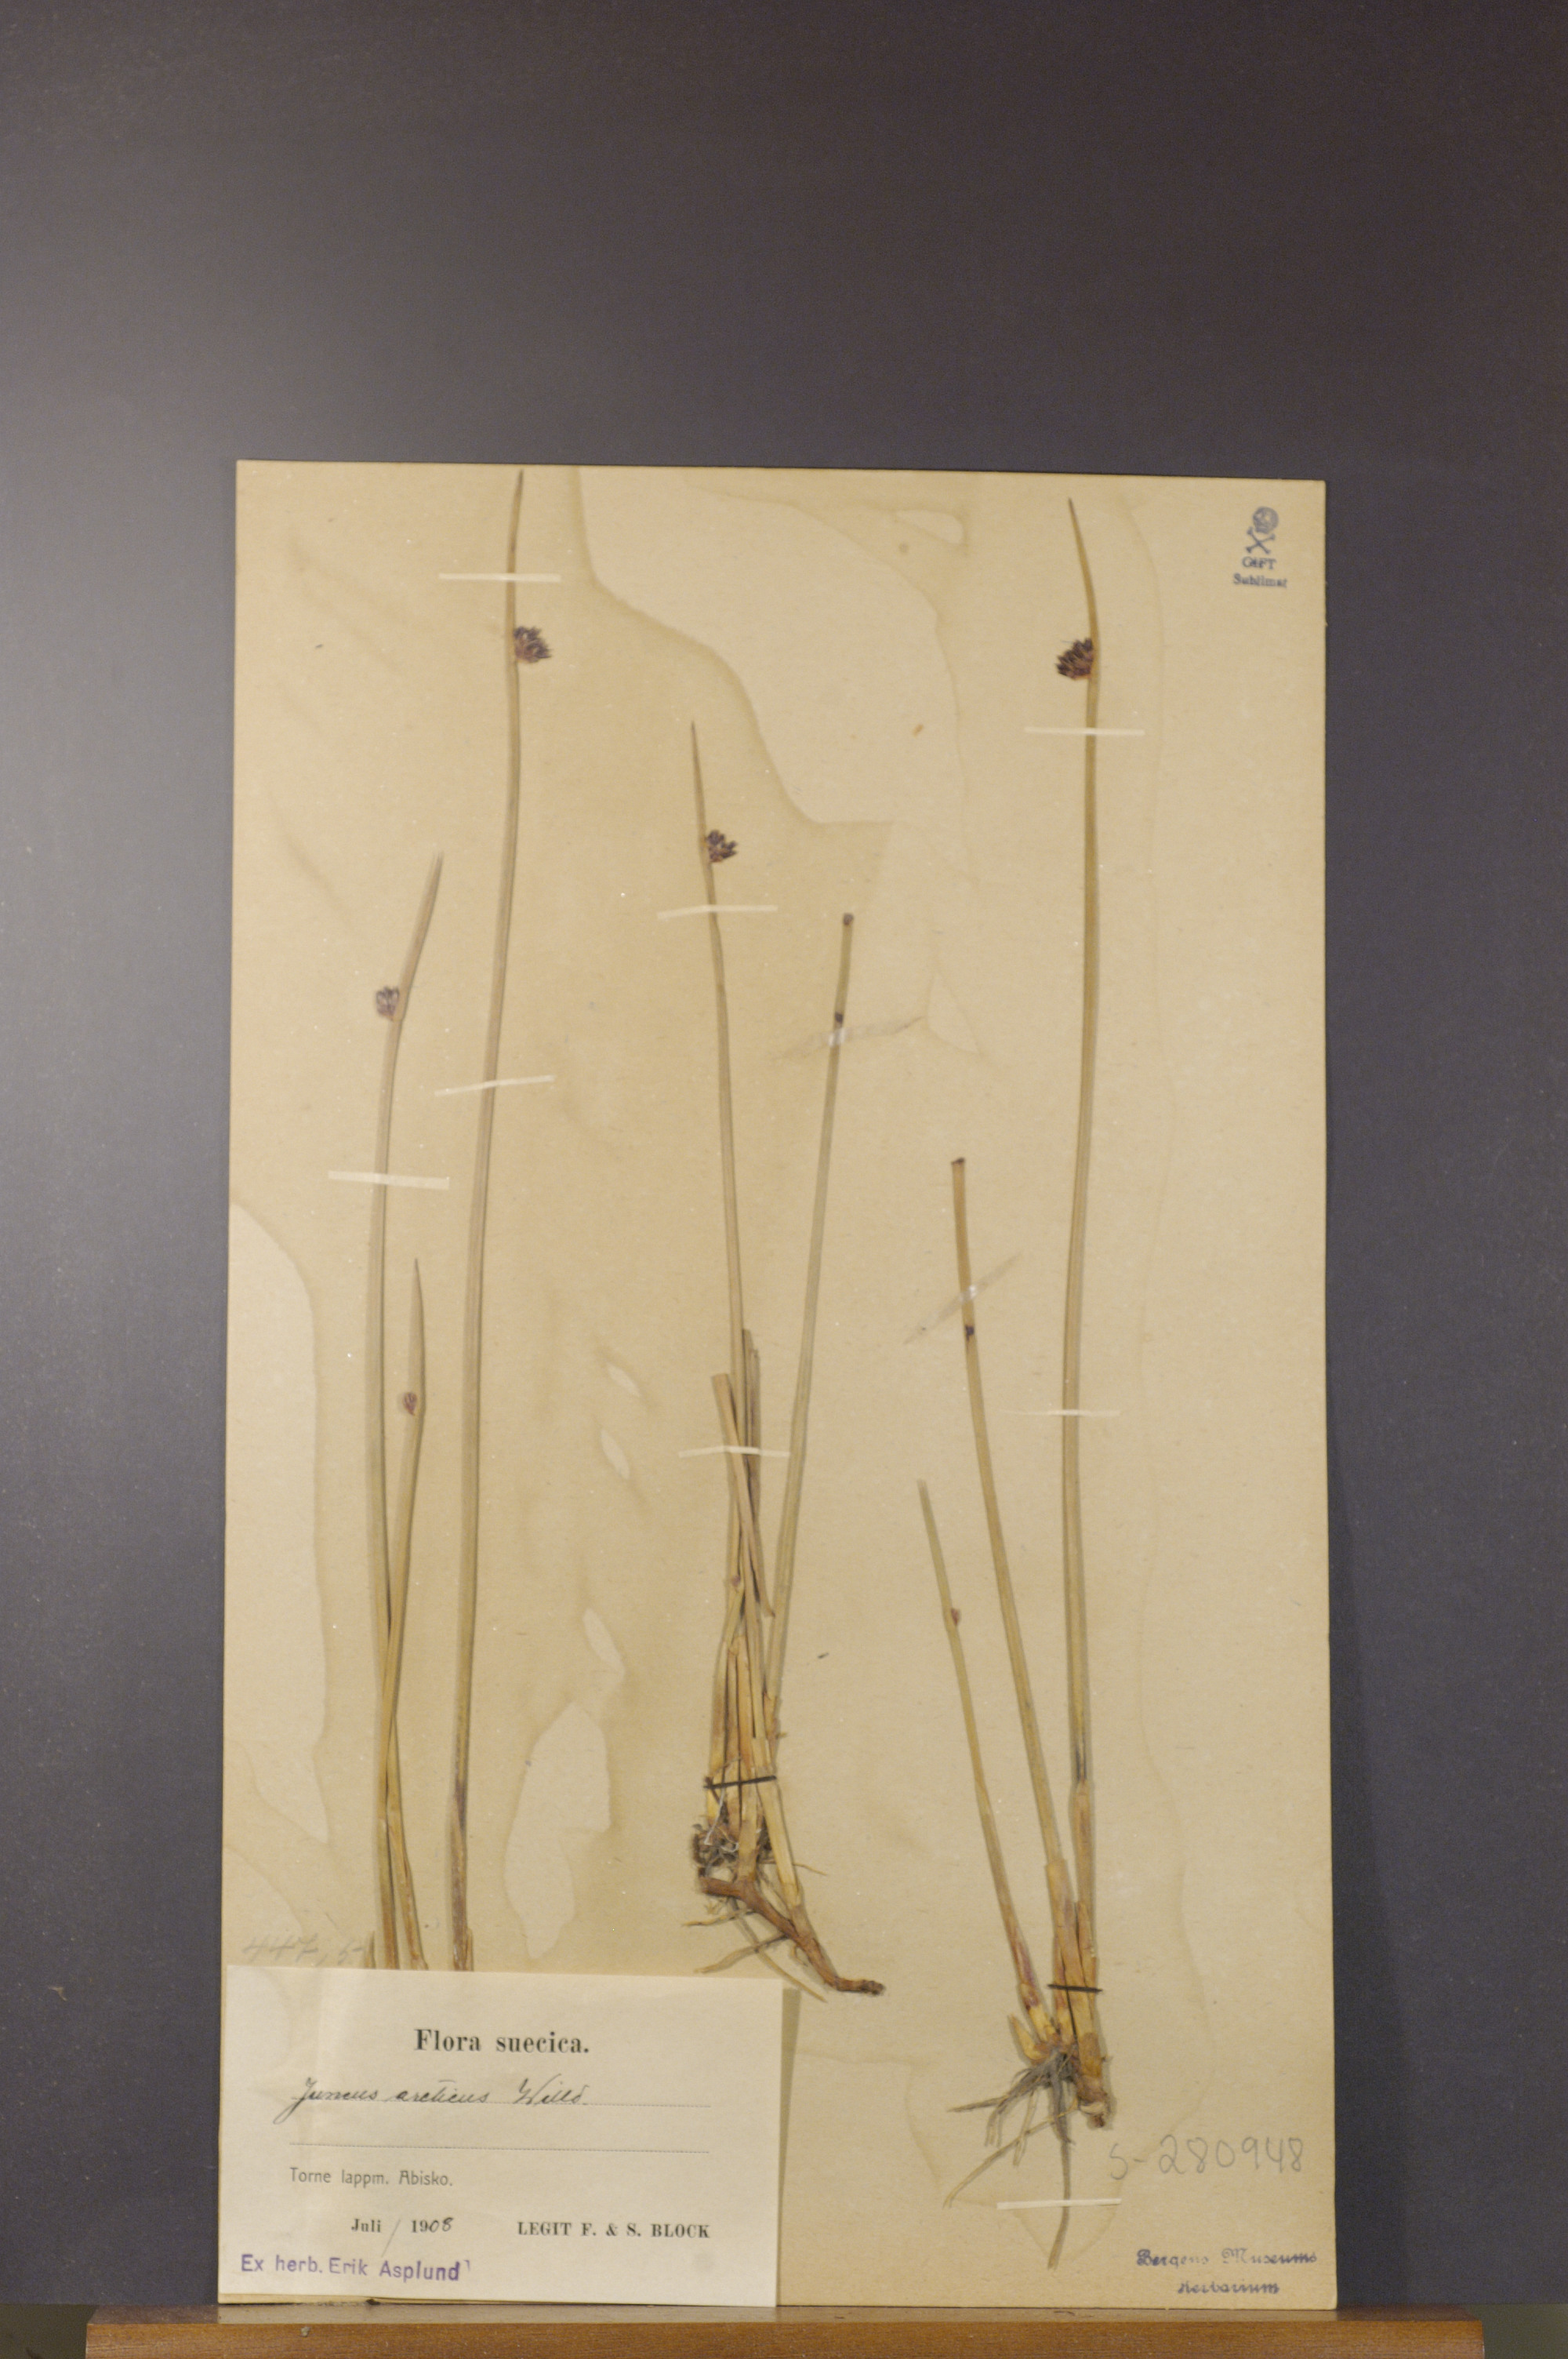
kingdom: Plantae
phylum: Tracheophyta
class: Liliopsida
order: Poales
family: Juncaceae
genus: Juncus
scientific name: Juncus arcticus
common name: Arctic rush
